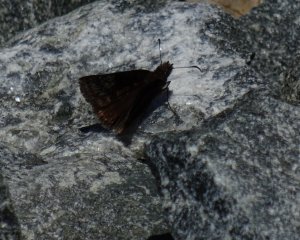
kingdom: Animalia
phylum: Arthropoda
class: Insecta
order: Lepidoptera
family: Hesperiidae
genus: Erynnis
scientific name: Erynnis
